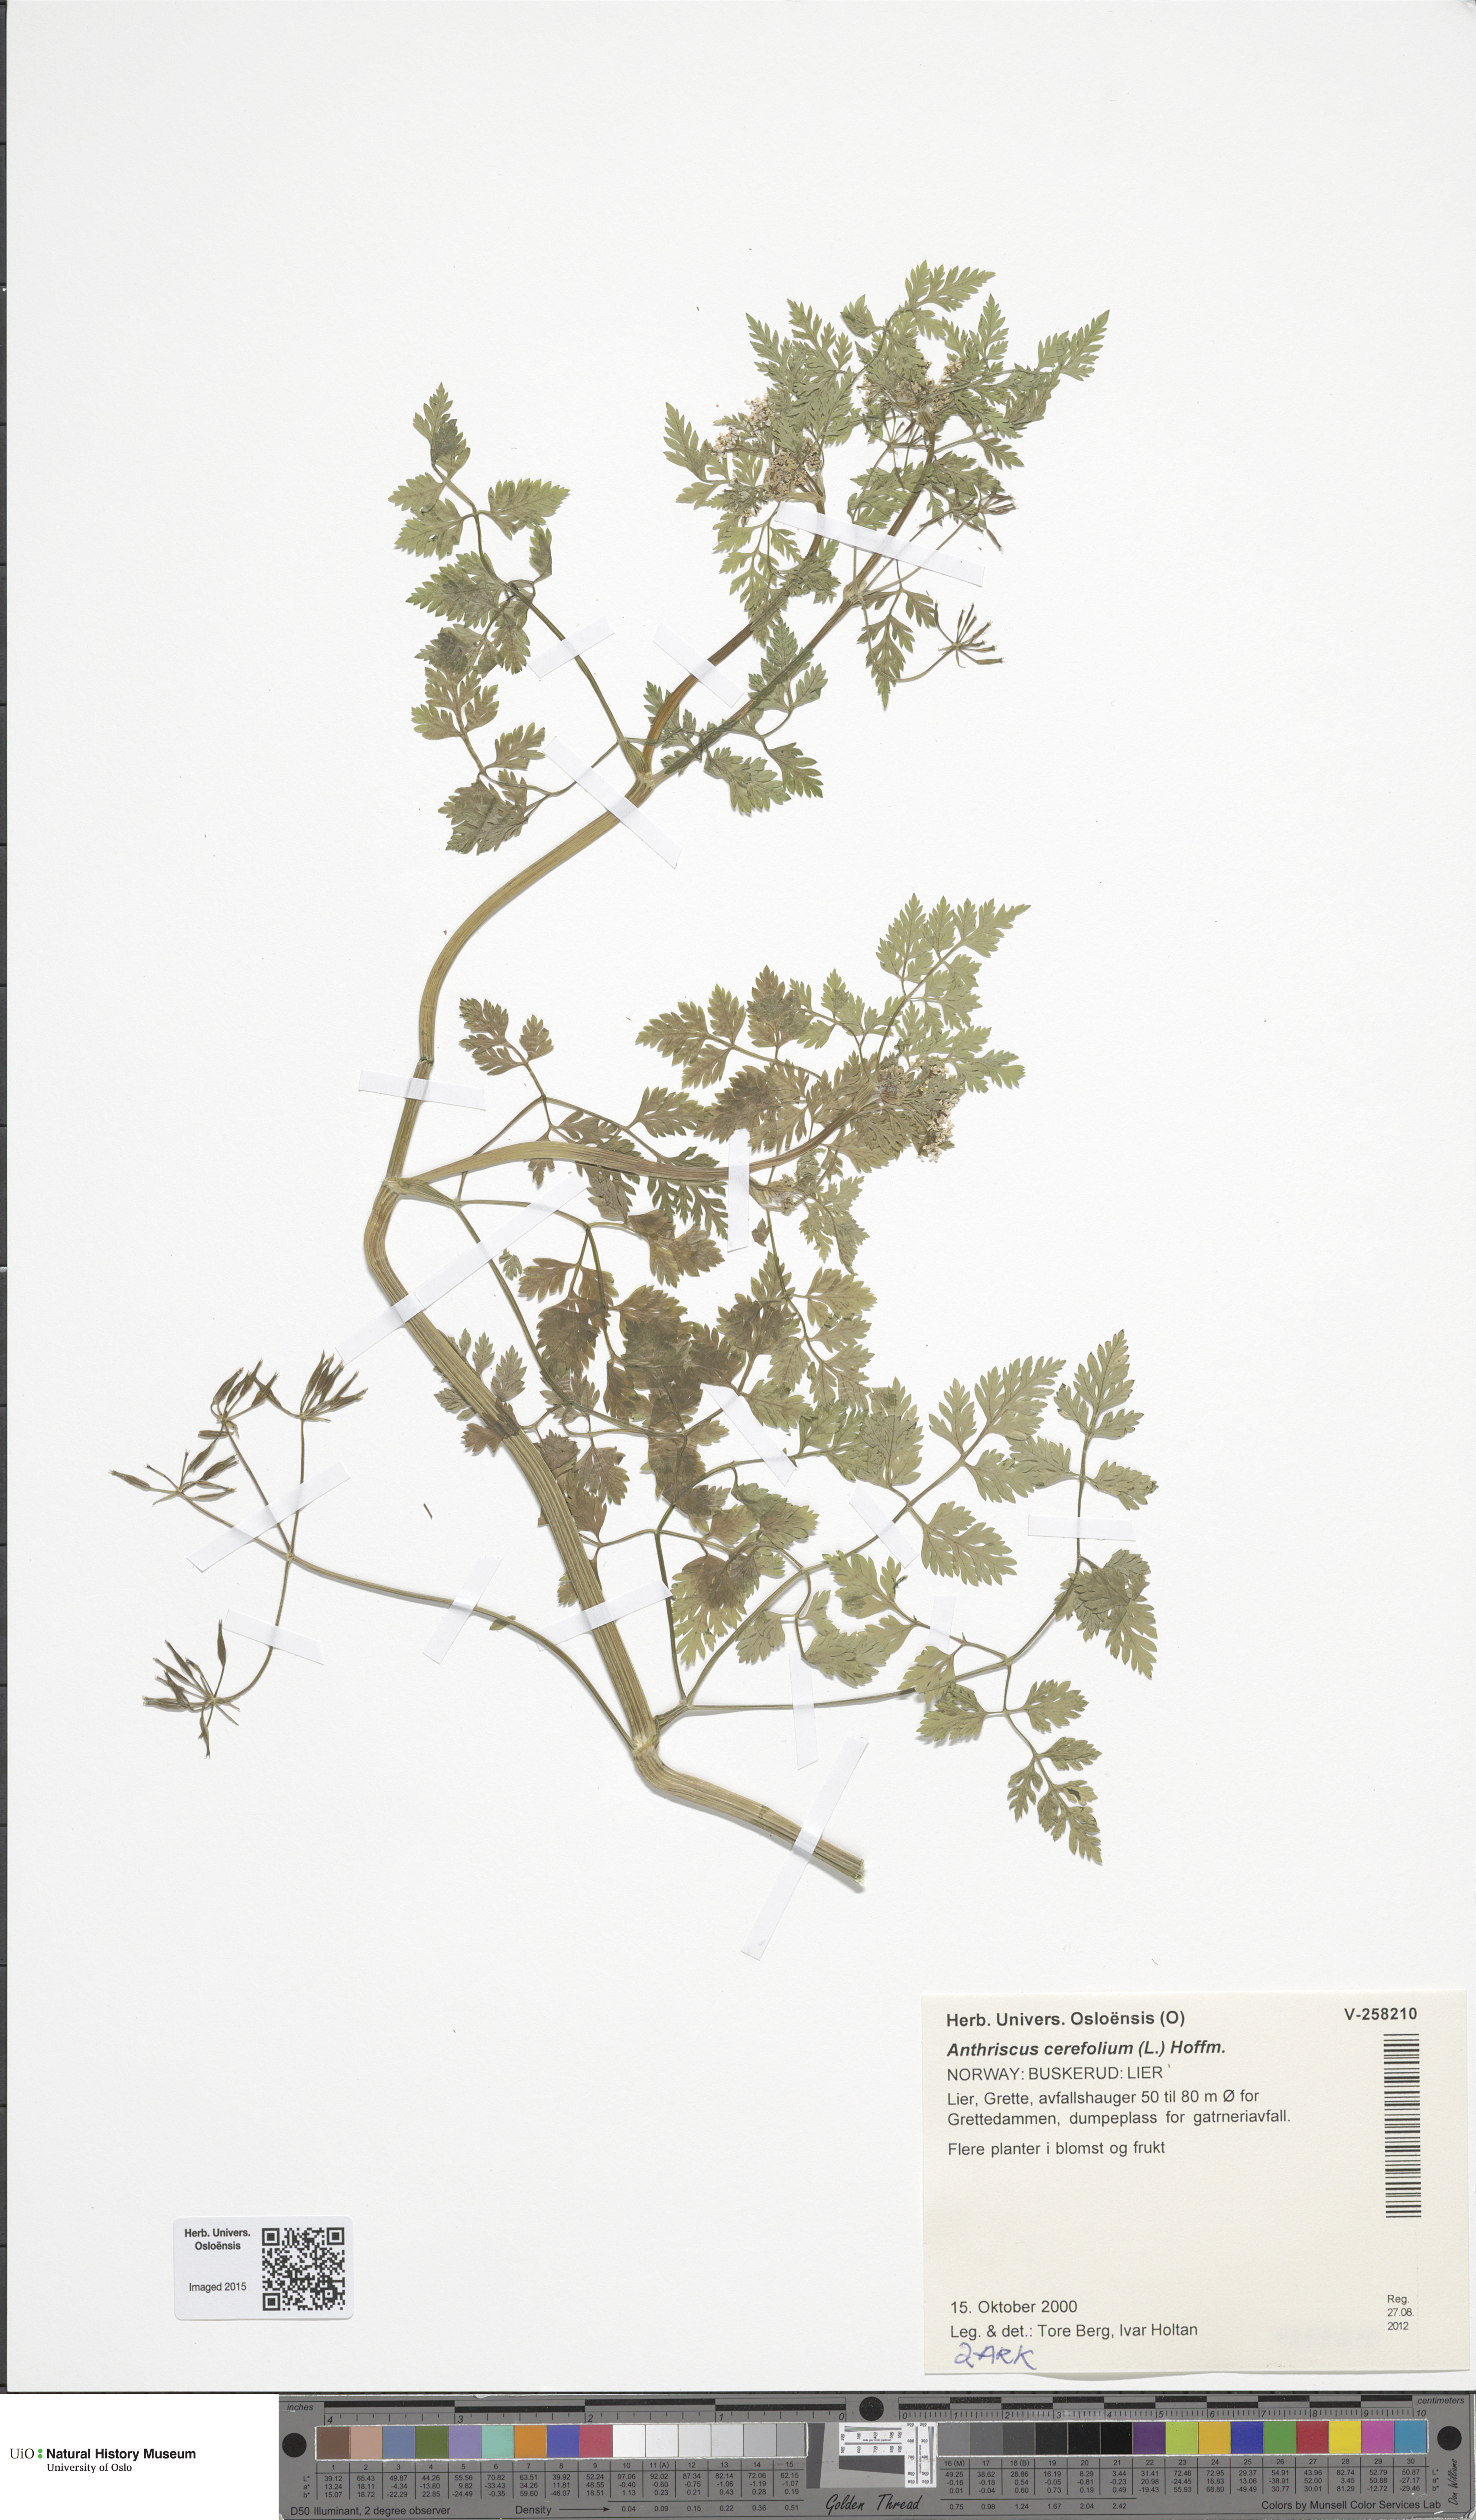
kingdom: Plantae
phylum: Tracheophyta
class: Magnoliopsida
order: Apiales
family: Apiaceae
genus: Anthriscus
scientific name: Anthriscus cerefolium
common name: Garden chervil
